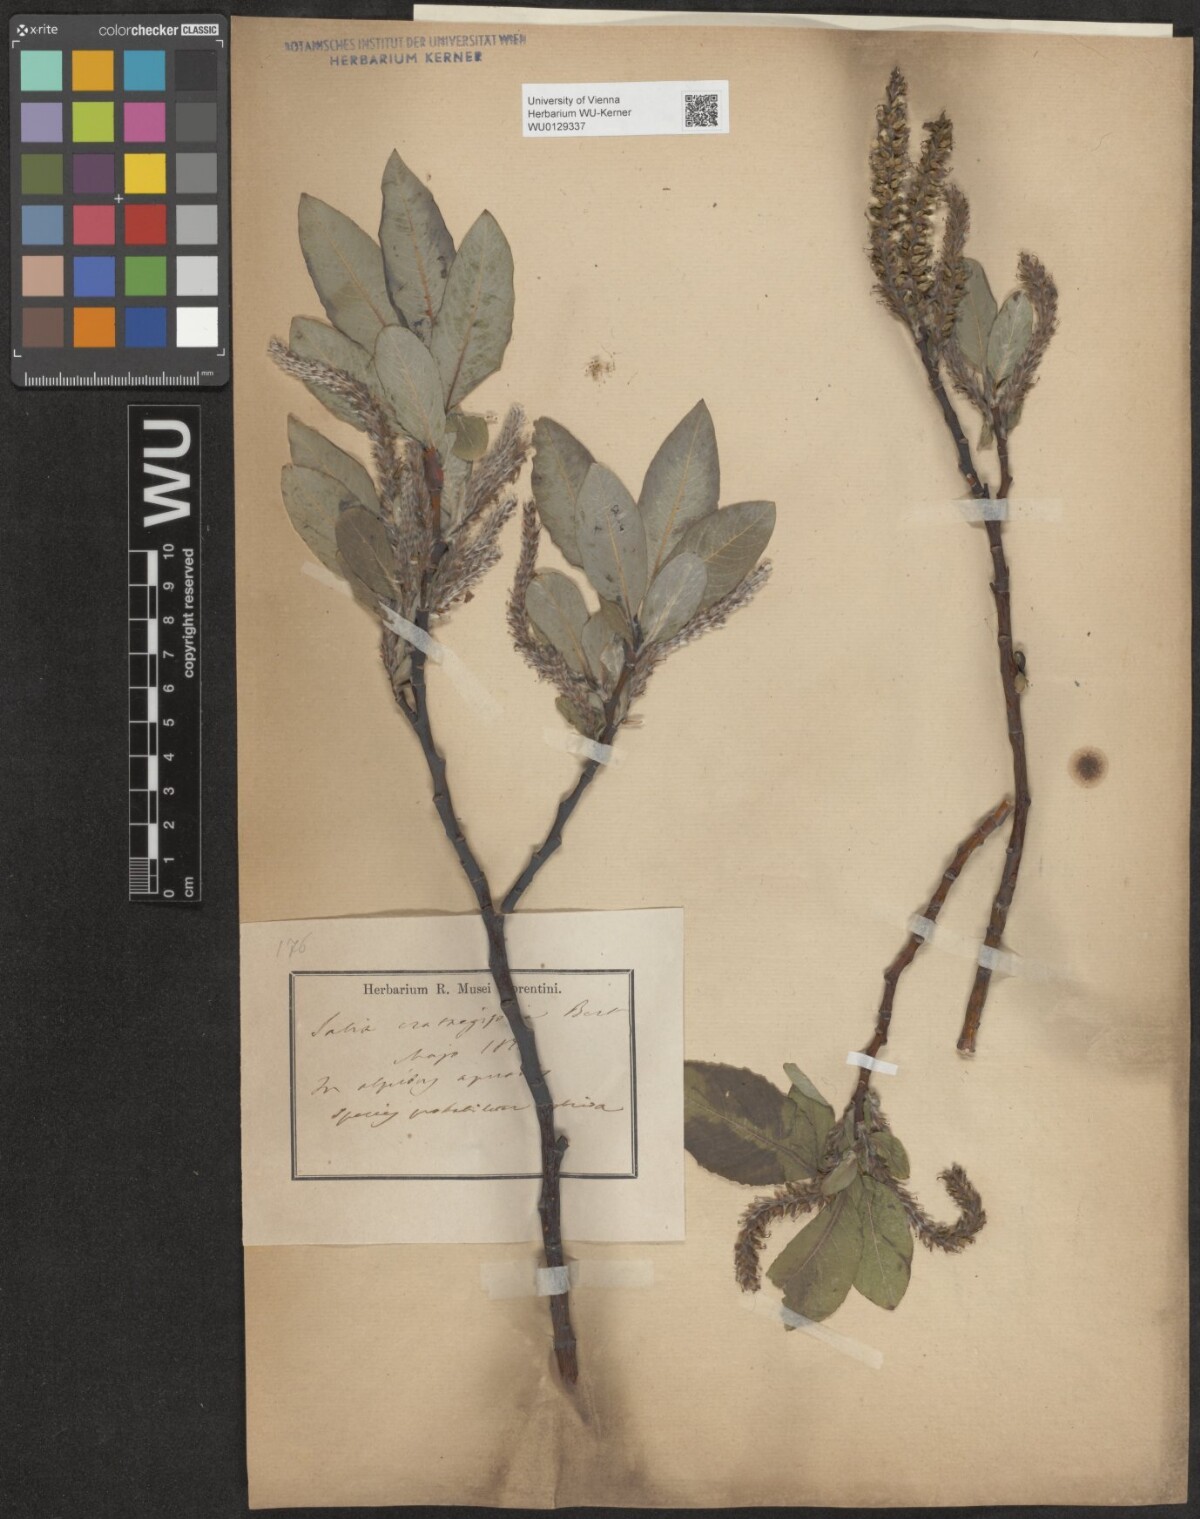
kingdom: Plantae
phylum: Tracheophyta
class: Magnoliopsida
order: Malpighiales
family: Salicaceae
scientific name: Salicaceae
